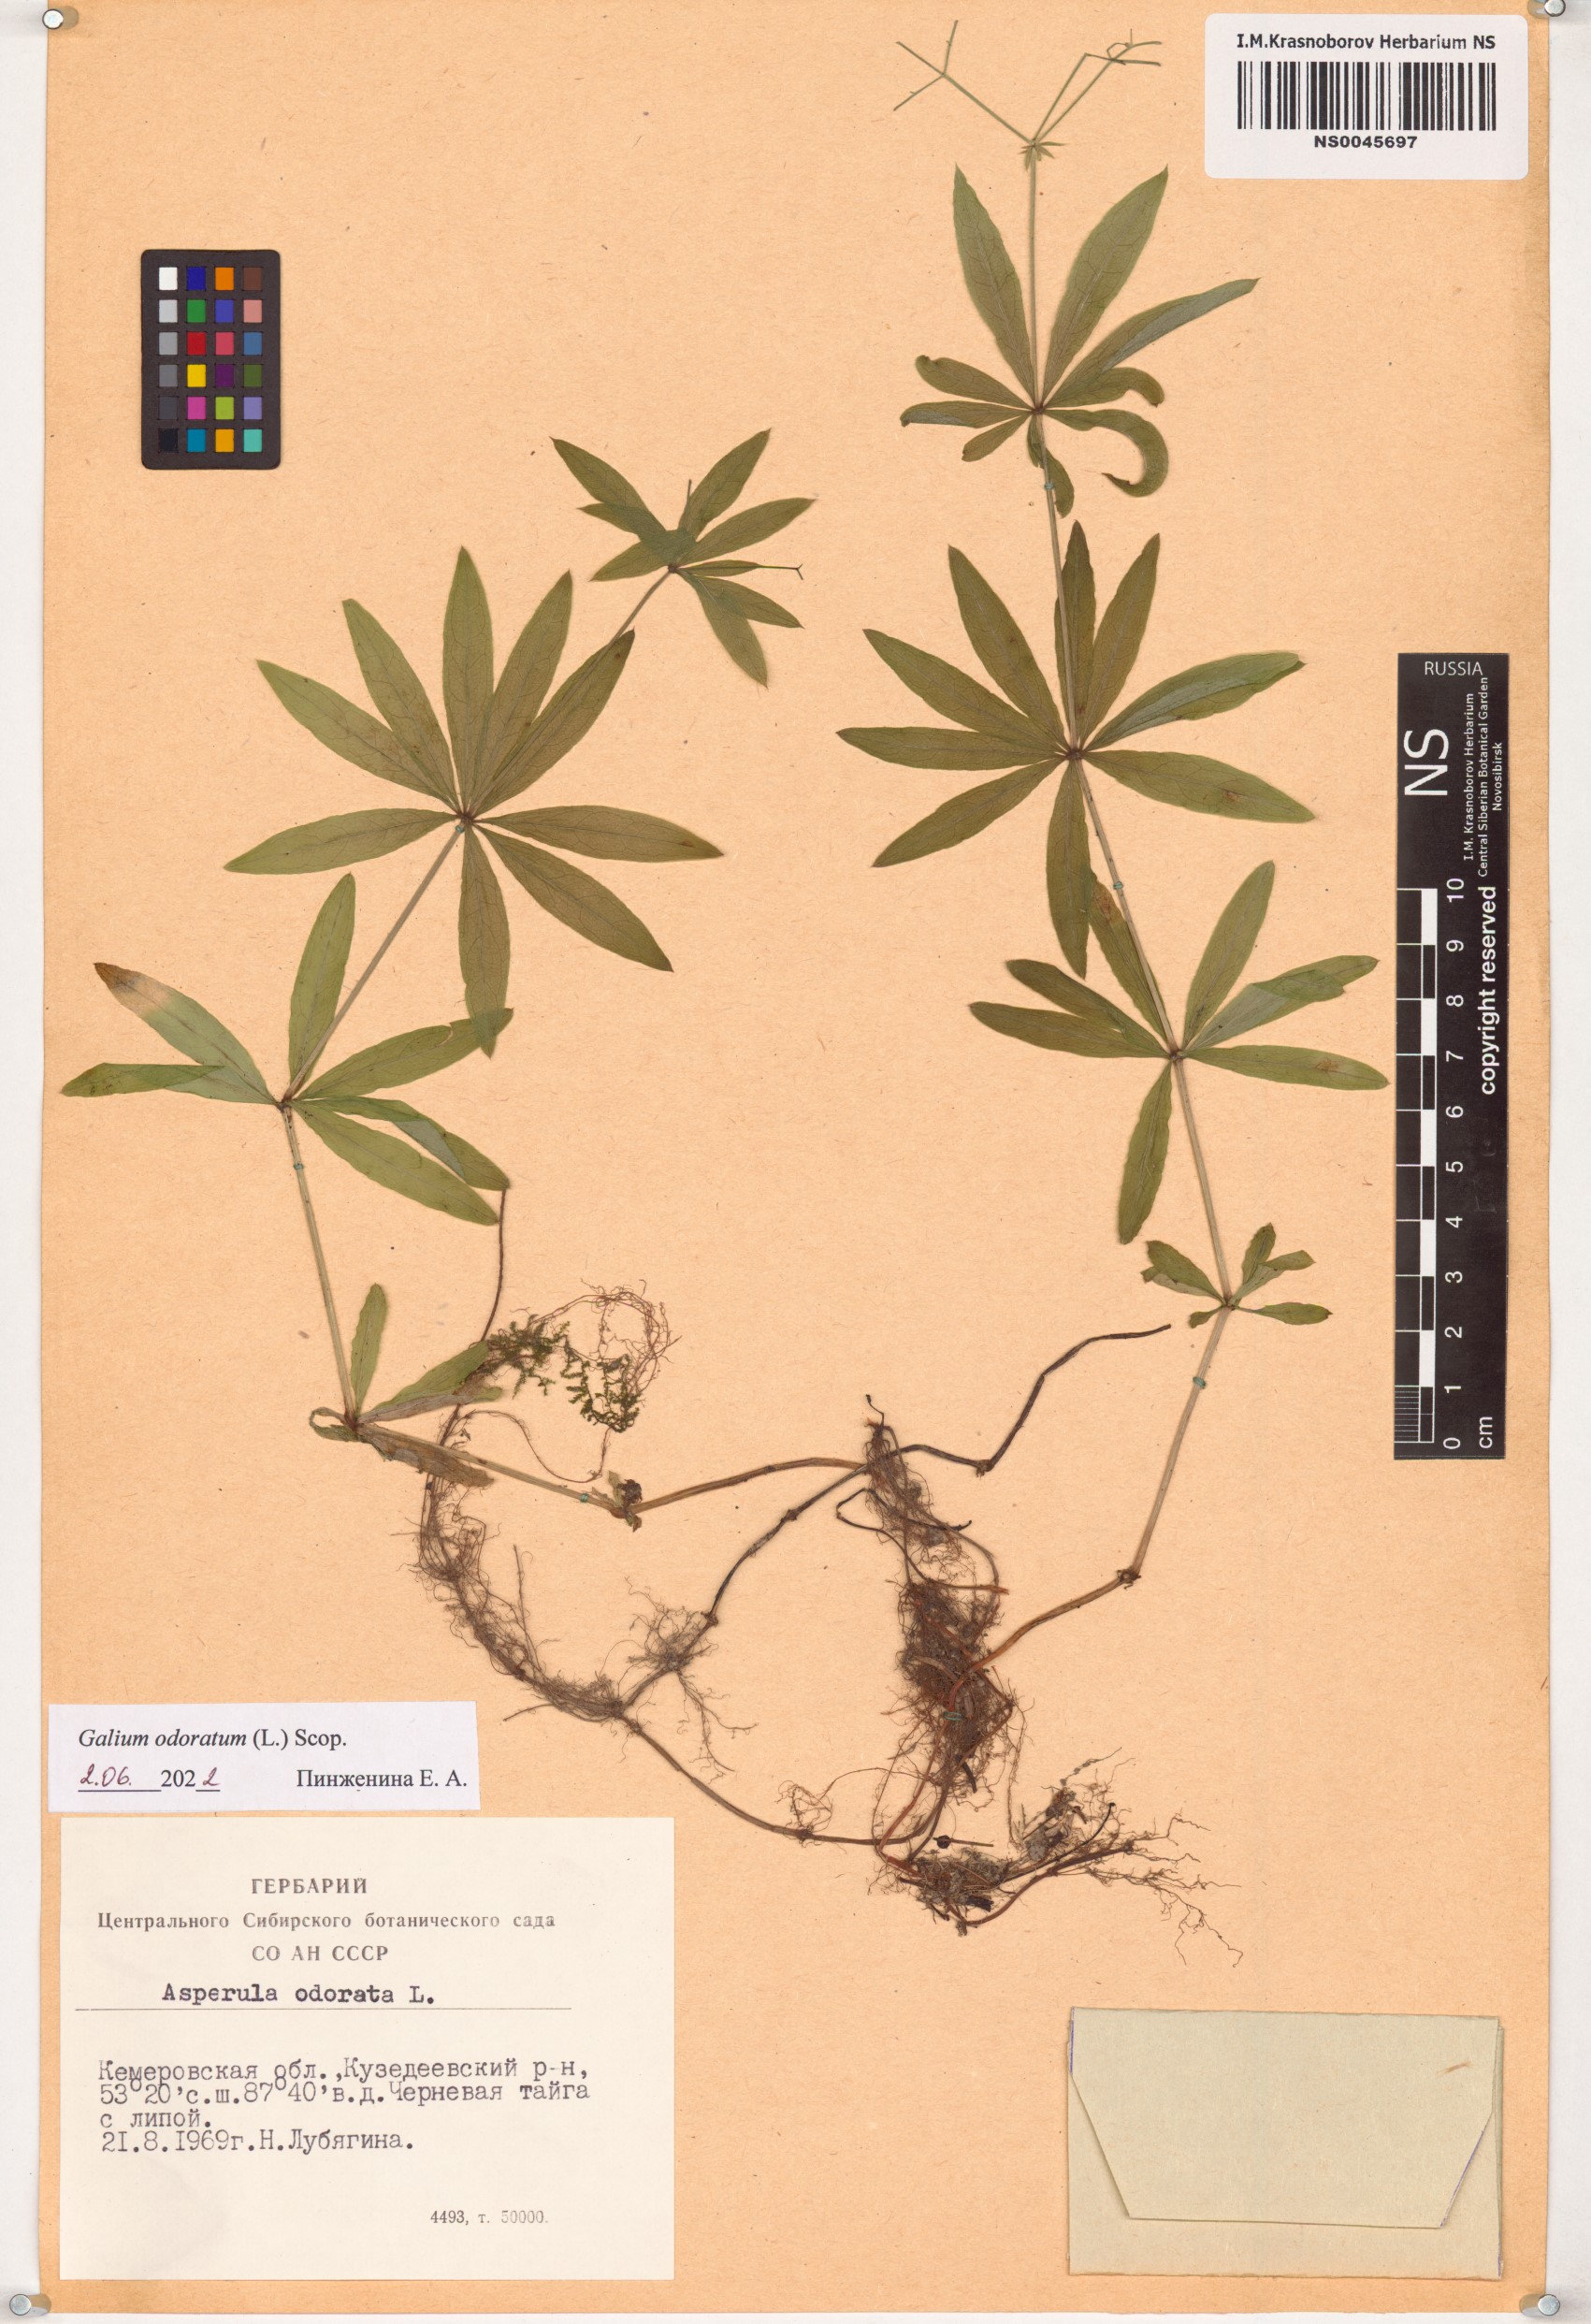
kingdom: Plantae
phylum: Tracheophyta
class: Magnoliopsida
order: Gentianales
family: Rubiaceae
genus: Galium
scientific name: Galium odoratum
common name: Sweet woodruff
